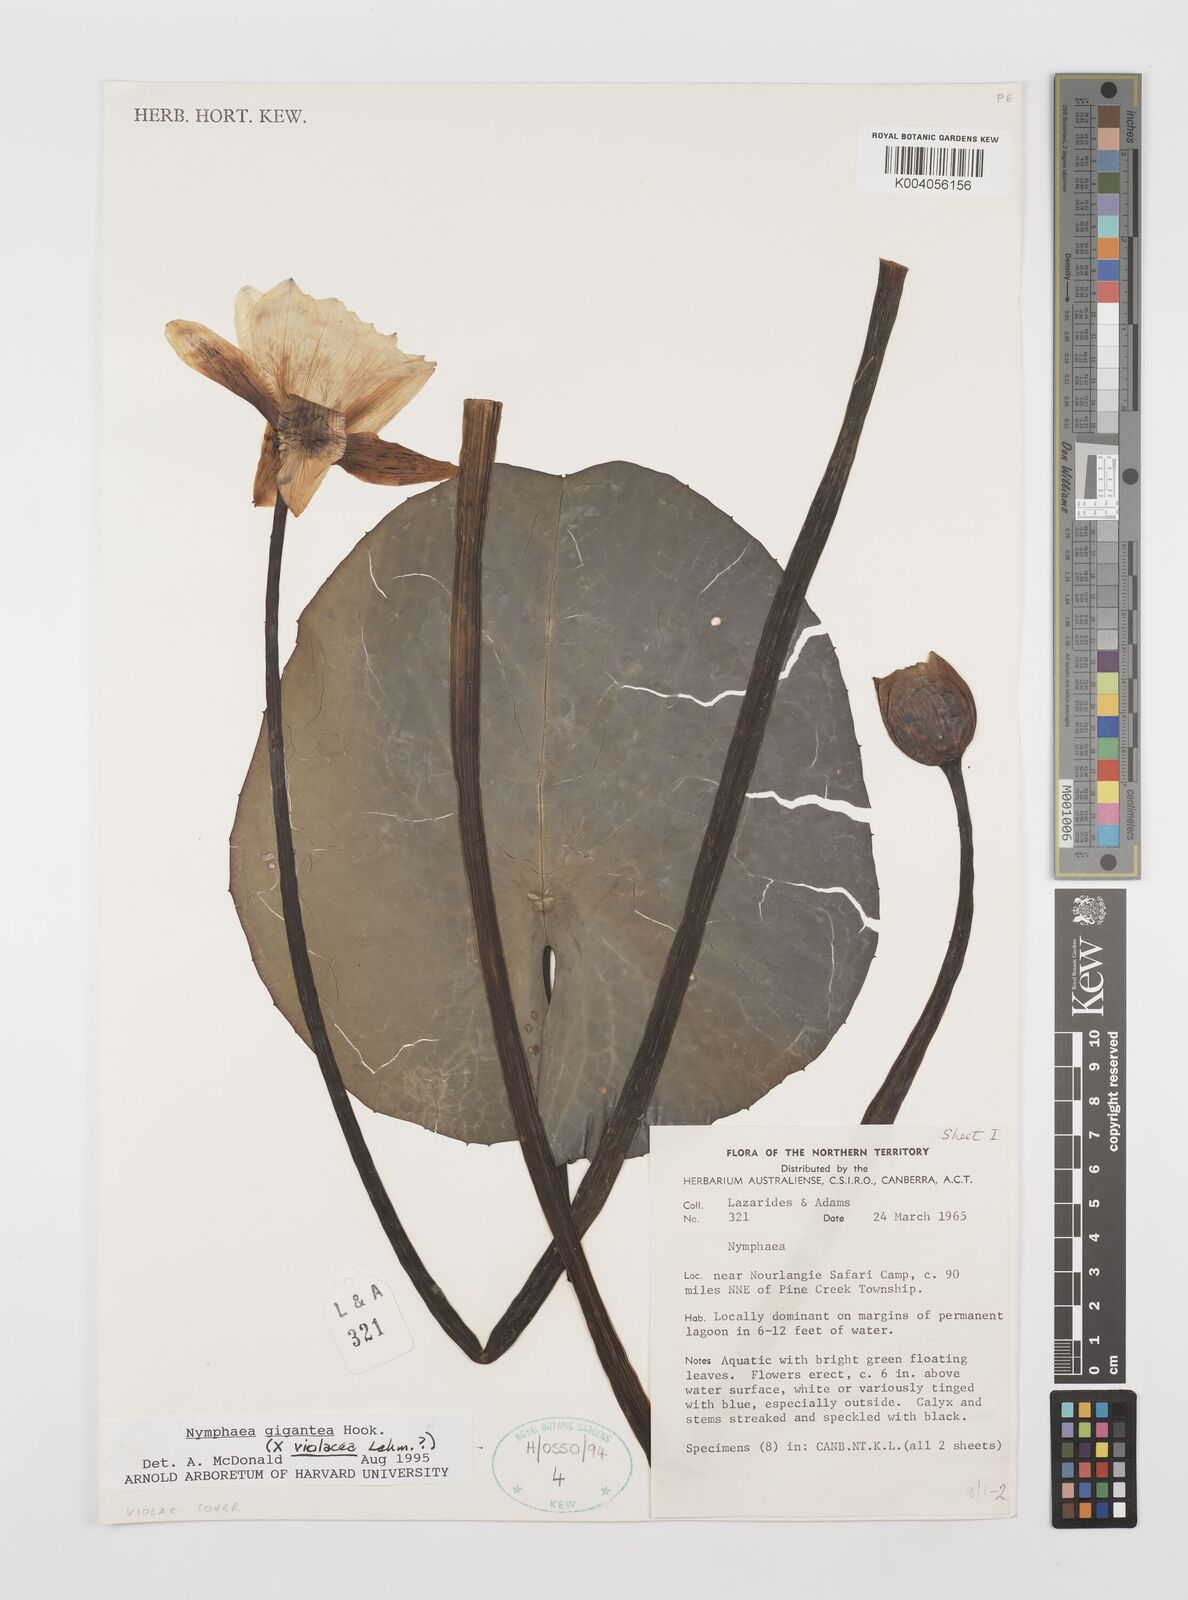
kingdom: Plantae
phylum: Tracheophyta
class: Magnoliopsida
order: Nymphaeales
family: Nymphaeaceae
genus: Nymphaea
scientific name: Nymphaea gigantea
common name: Giant water-lily
